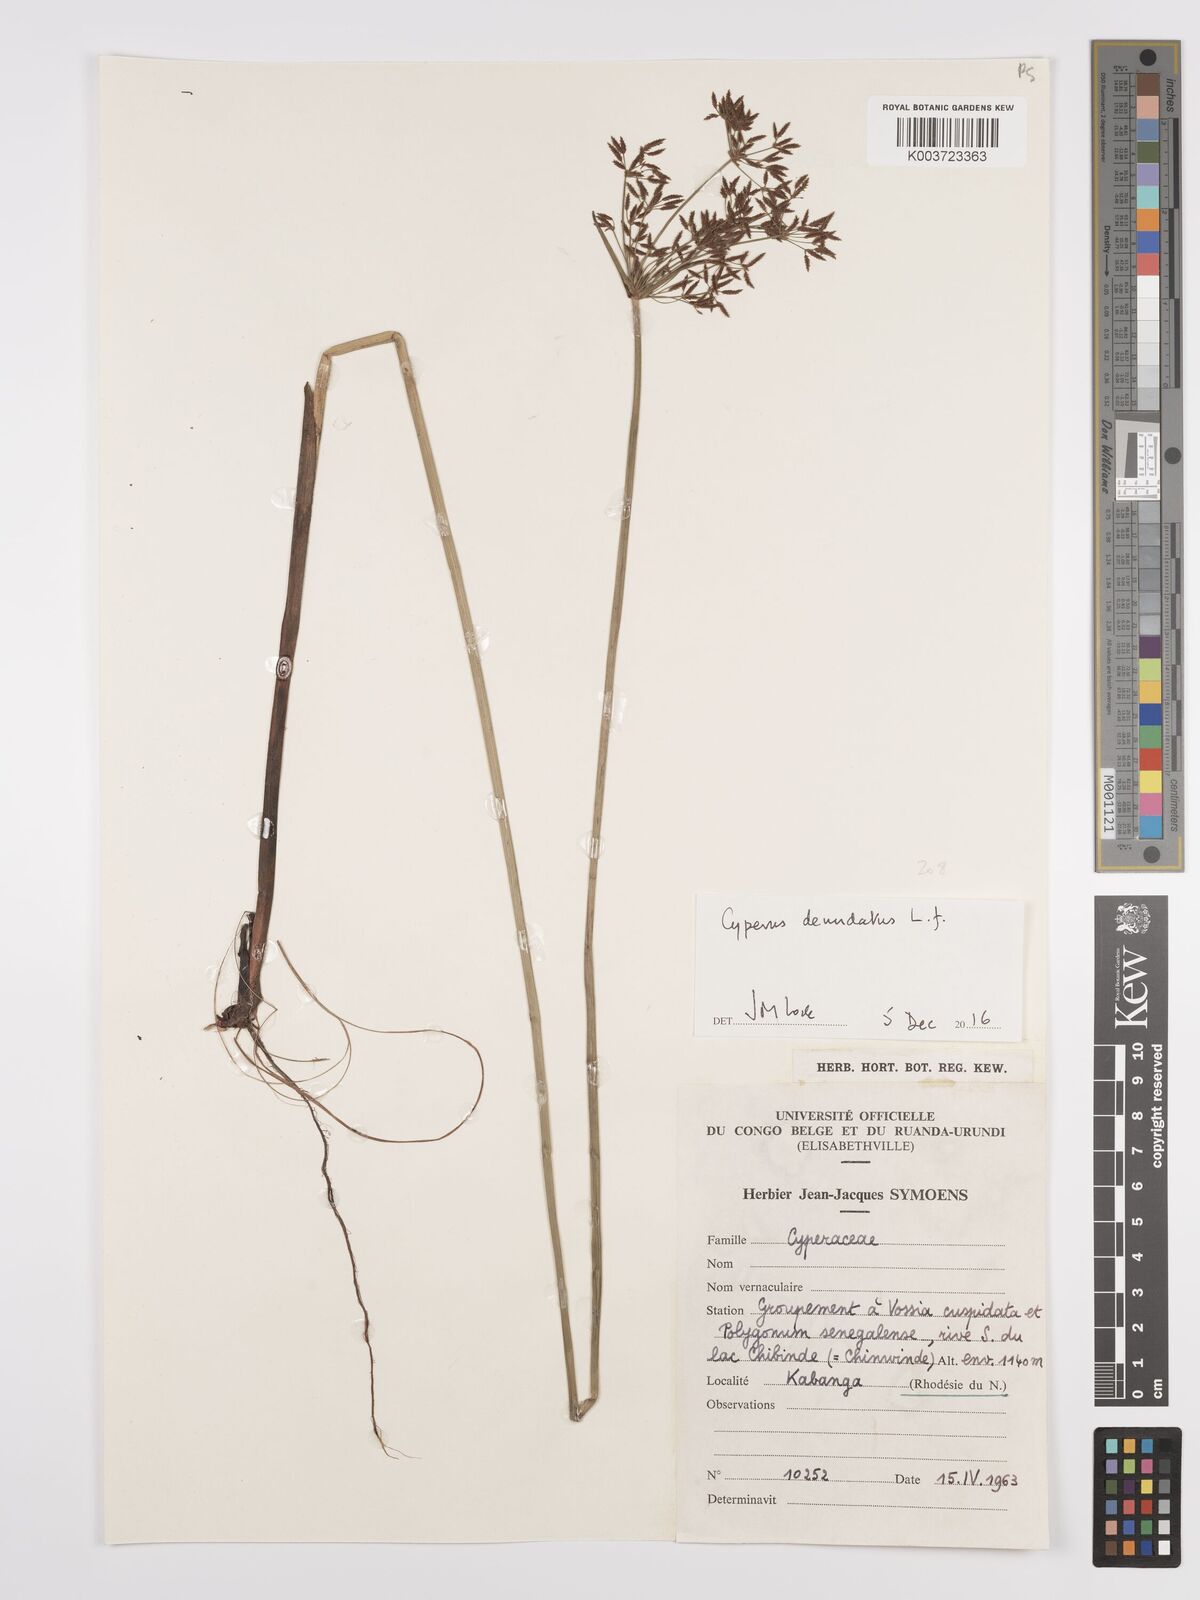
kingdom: Plantae
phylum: Tracheophyta
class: Liliopsida
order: Poales
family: Cyperaceae
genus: Cyperus
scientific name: Cyperus denudatus
